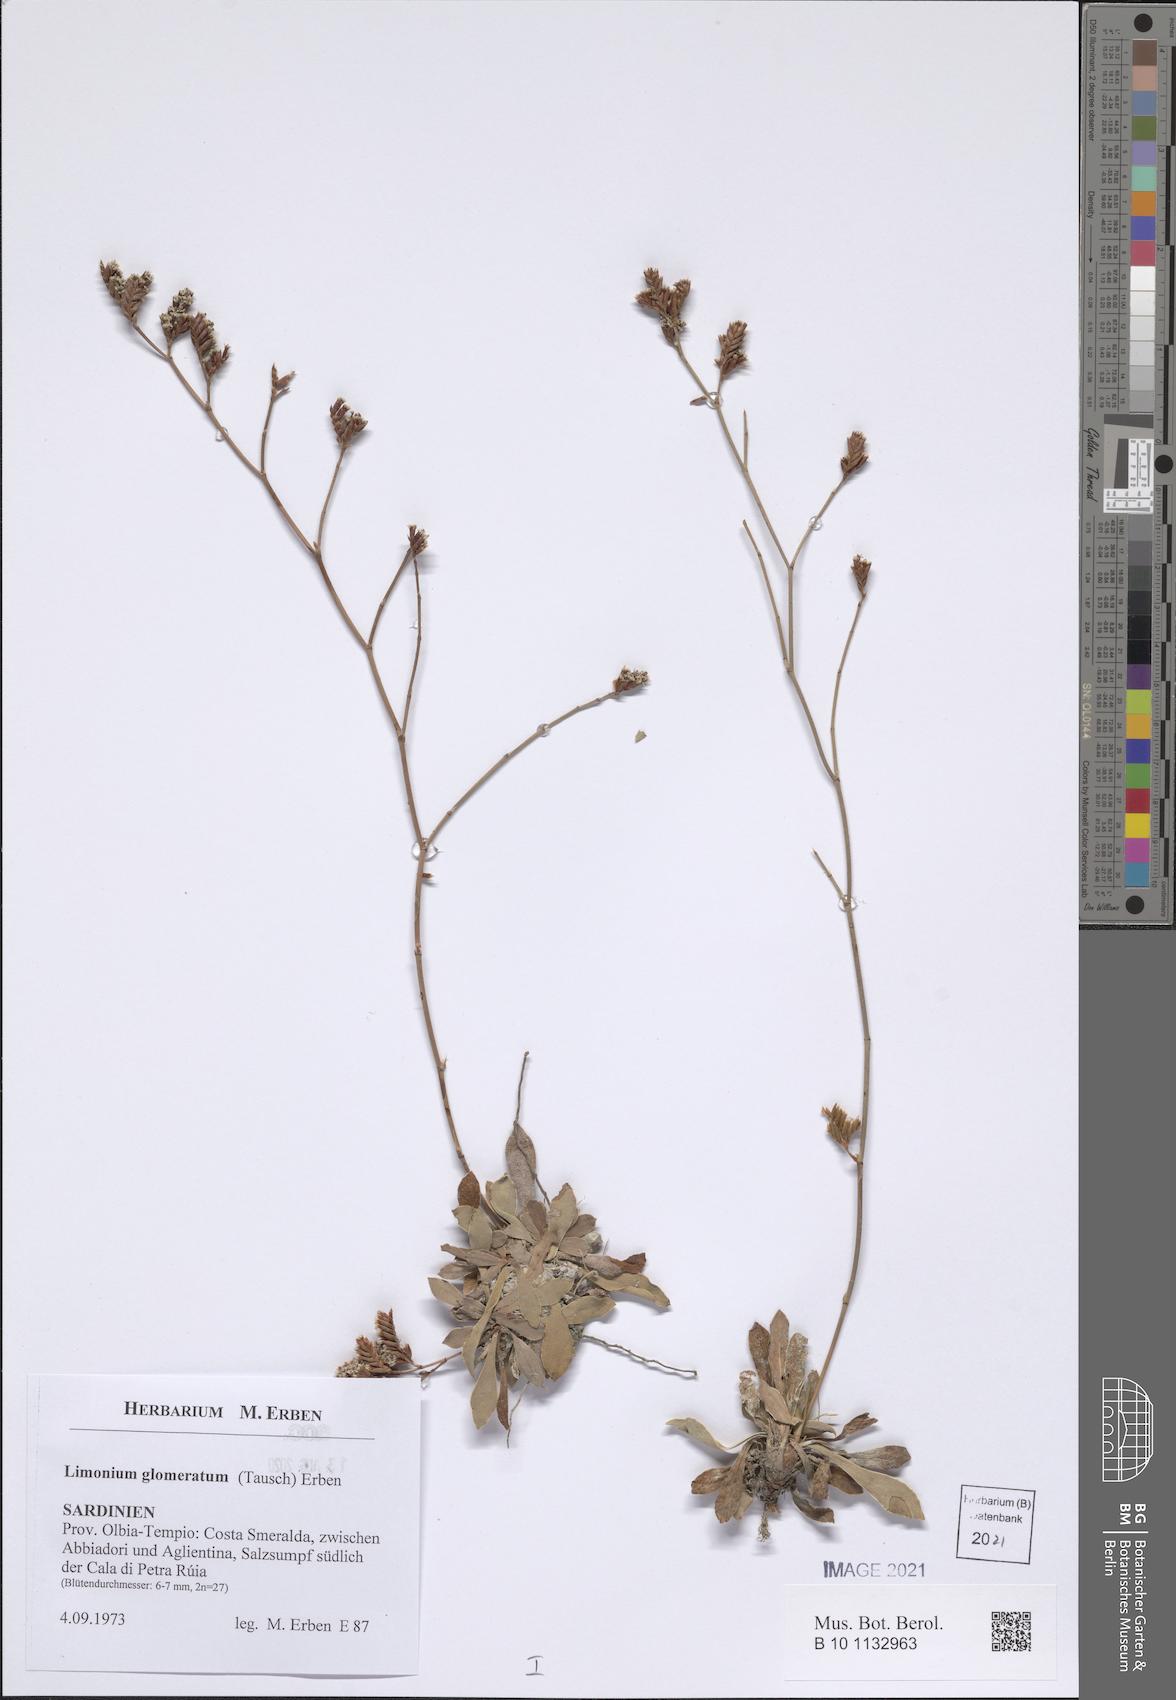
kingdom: Plantae
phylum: Tracheophyta
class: Magnoliopsida
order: Caryophyllales
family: Plumbaginaceae
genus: Limonium
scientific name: Limonium glomeratum
